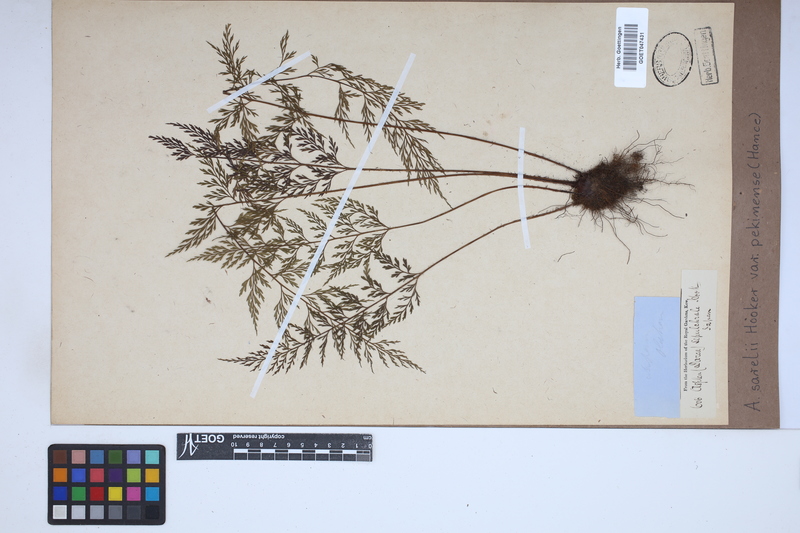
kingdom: Plantae
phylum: Tracheophyta
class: Polypodiopsida
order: Polypodiales
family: Aspleniaceae
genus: Asplenium
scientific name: Asplenium sarelii
